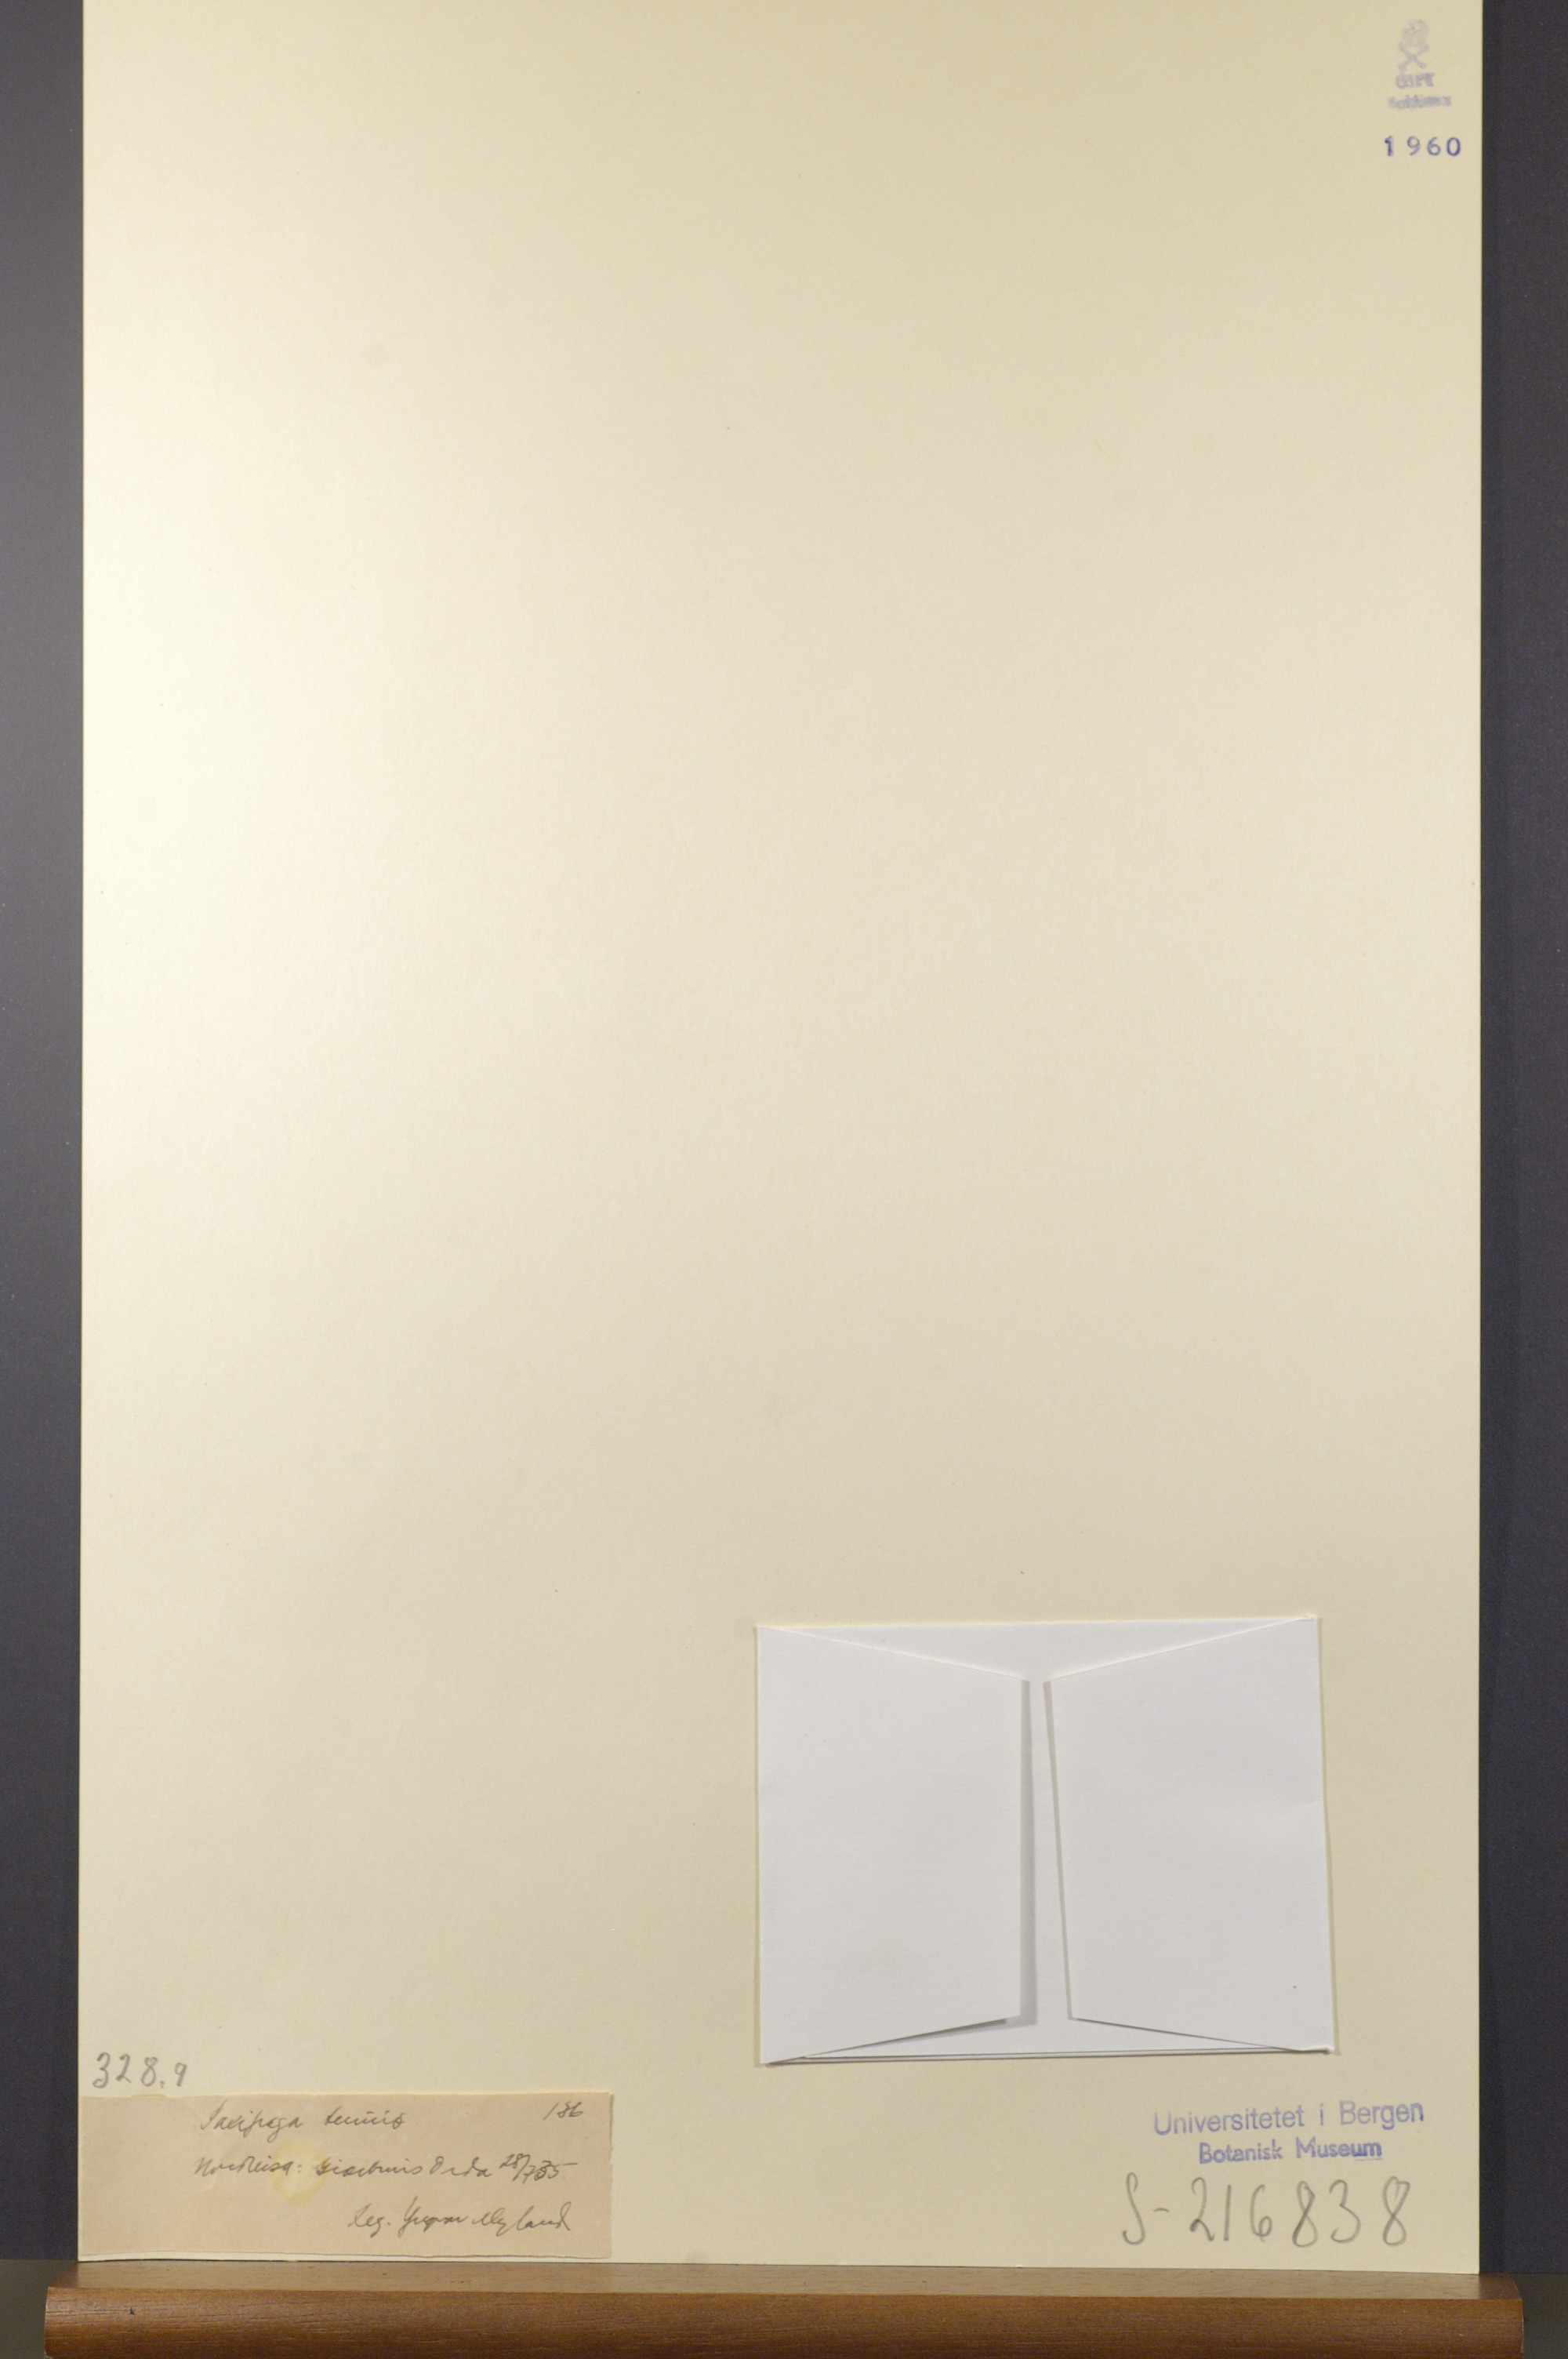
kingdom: Plantae
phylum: Tracheophyta
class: Magnoliopsida
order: Saxifragales
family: Saxifragaceae
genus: Micranthes
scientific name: Micranthes tenuis
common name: Ottertail pass saxifrage
